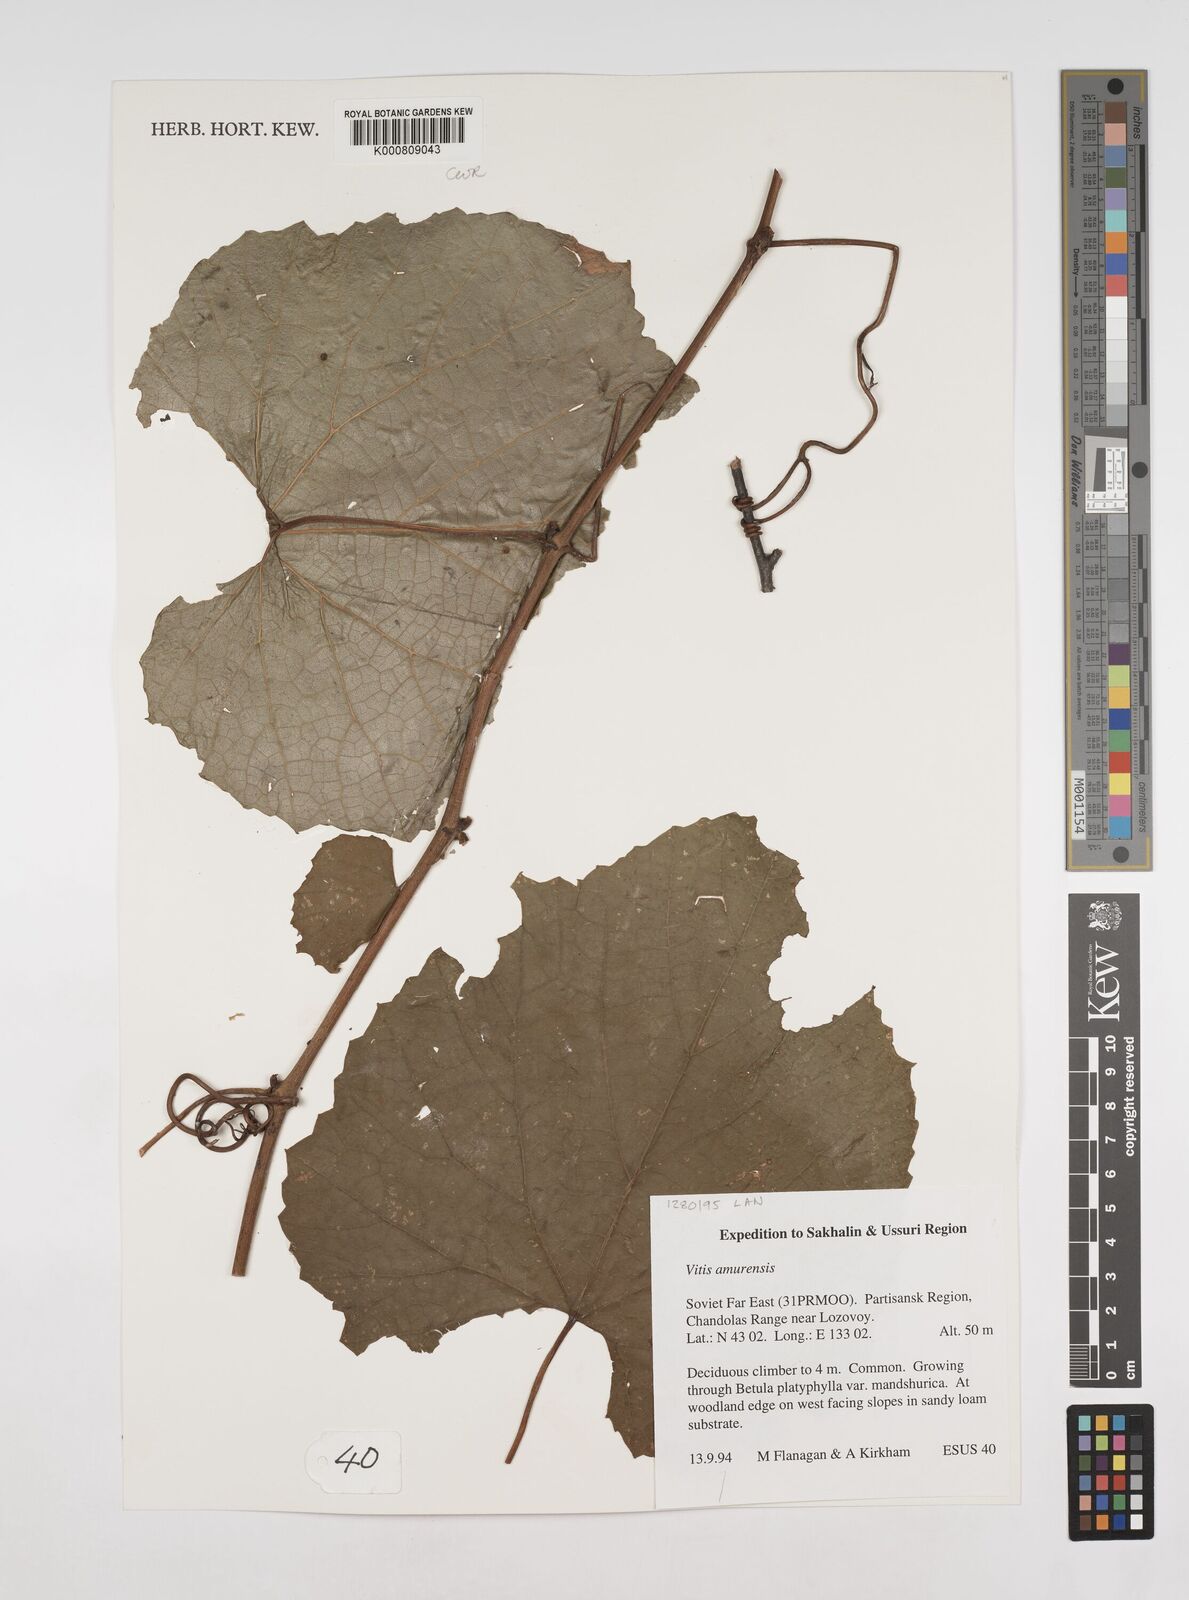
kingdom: Plantae
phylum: Tracheophyta
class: Magnoliopsida
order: Vitales
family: Vitaceae
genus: Vitis
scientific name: Vitis amurensis
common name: Amur grape
